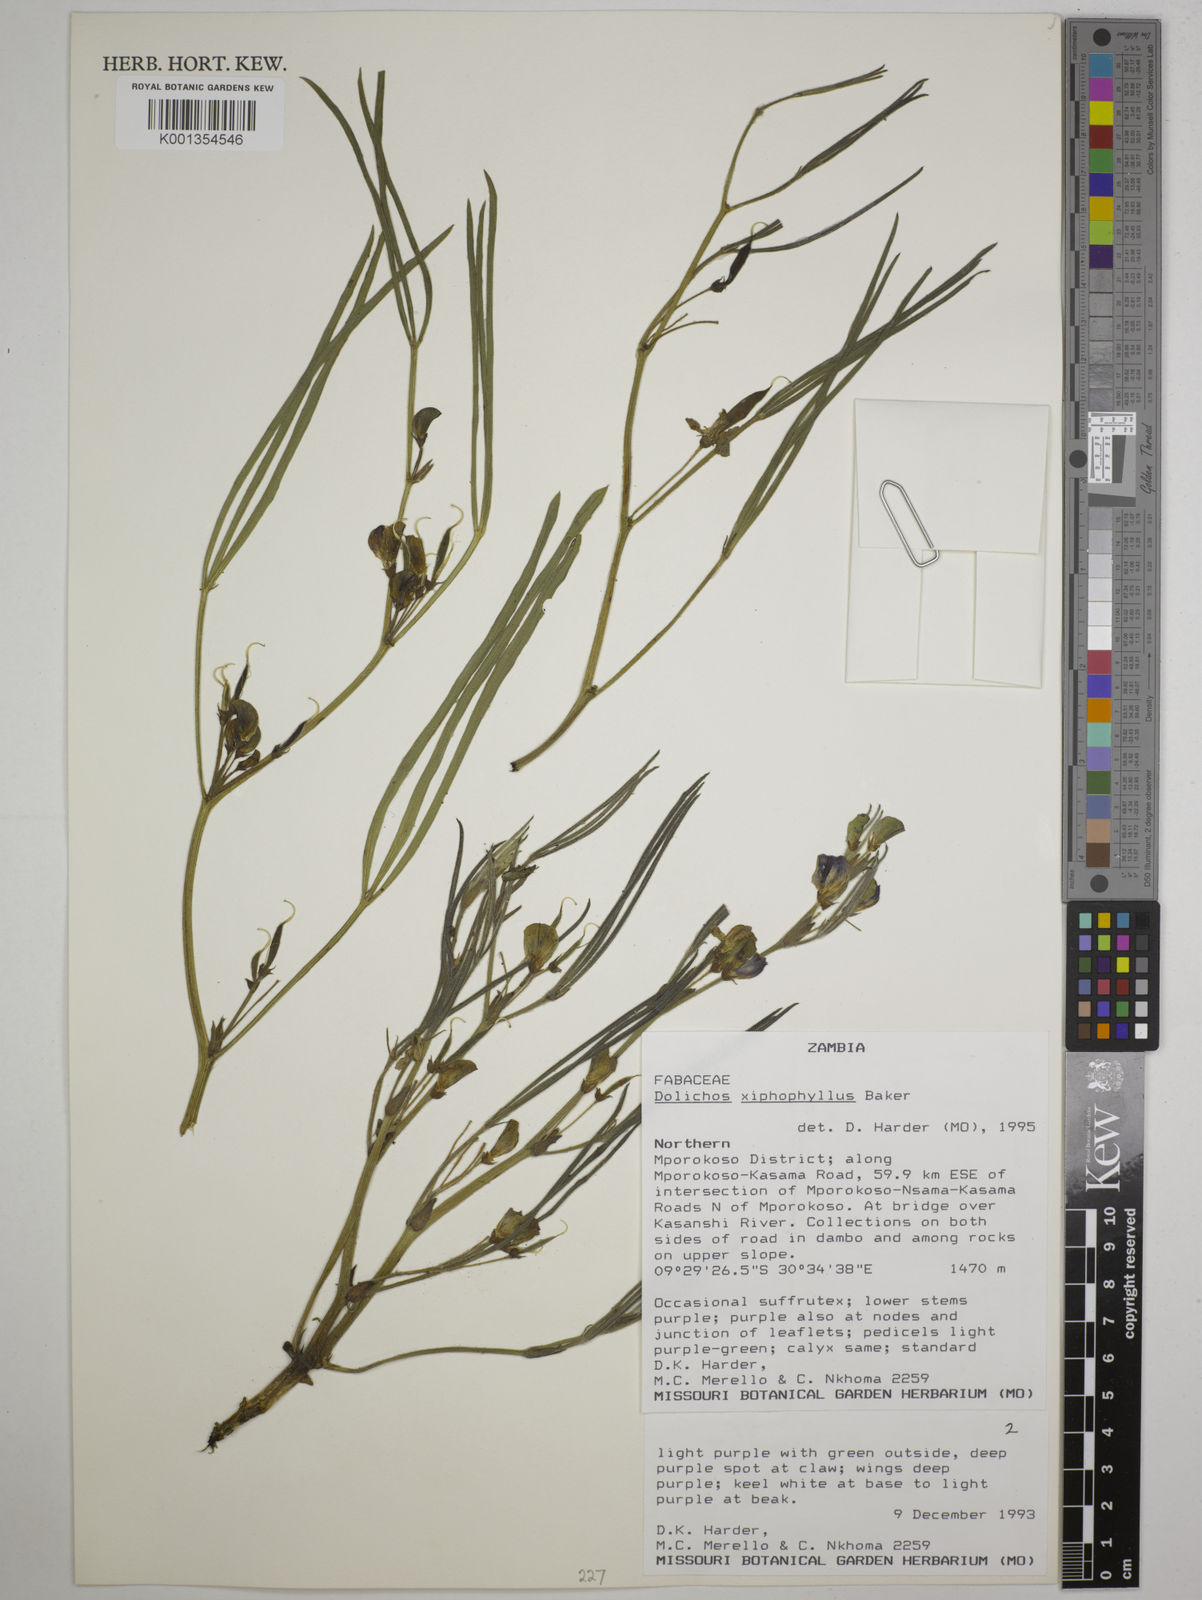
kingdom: Plantae
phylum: Tracheophyta
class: Magnoliopsida
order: Fabales
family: Fabaceae
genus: Dolichos
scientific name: Dolichos xiphophyllus
